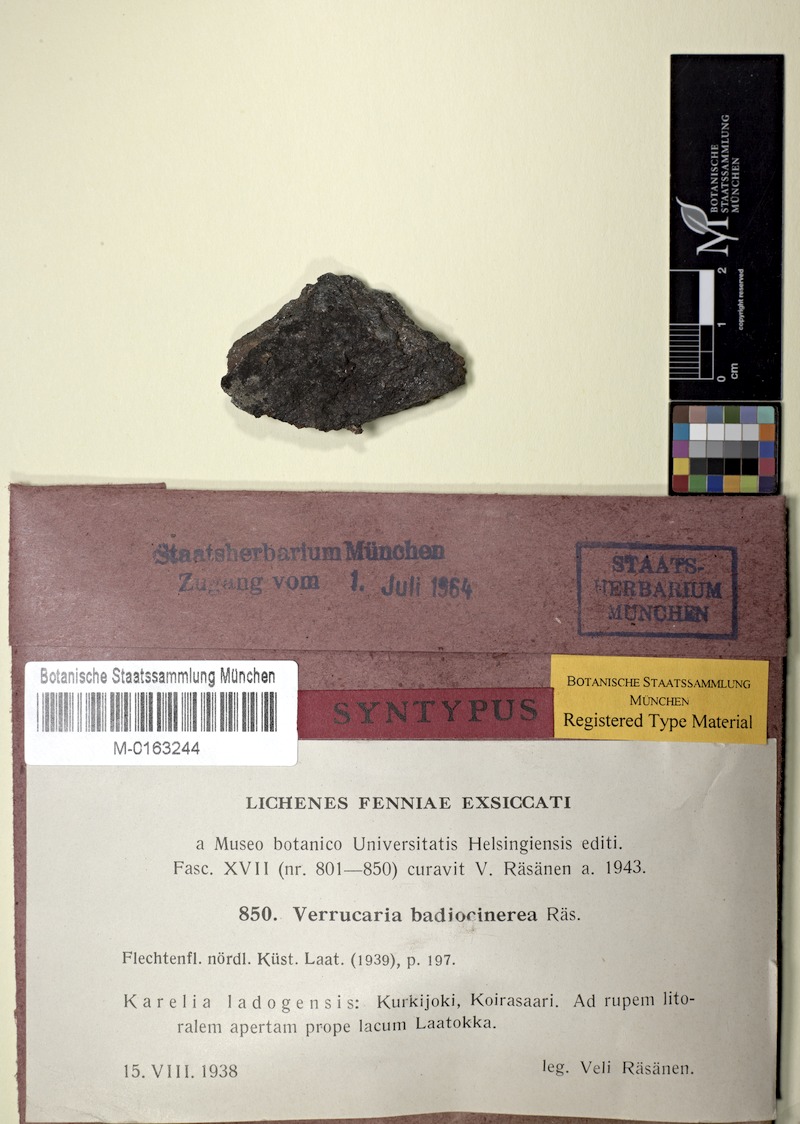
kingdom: Fungi
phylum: Ascomycota
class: Eurotiomycetes
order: Verrucariales
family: Verrucariaceae
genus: Verrucaria
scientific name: Verrucaria badiocinerea
